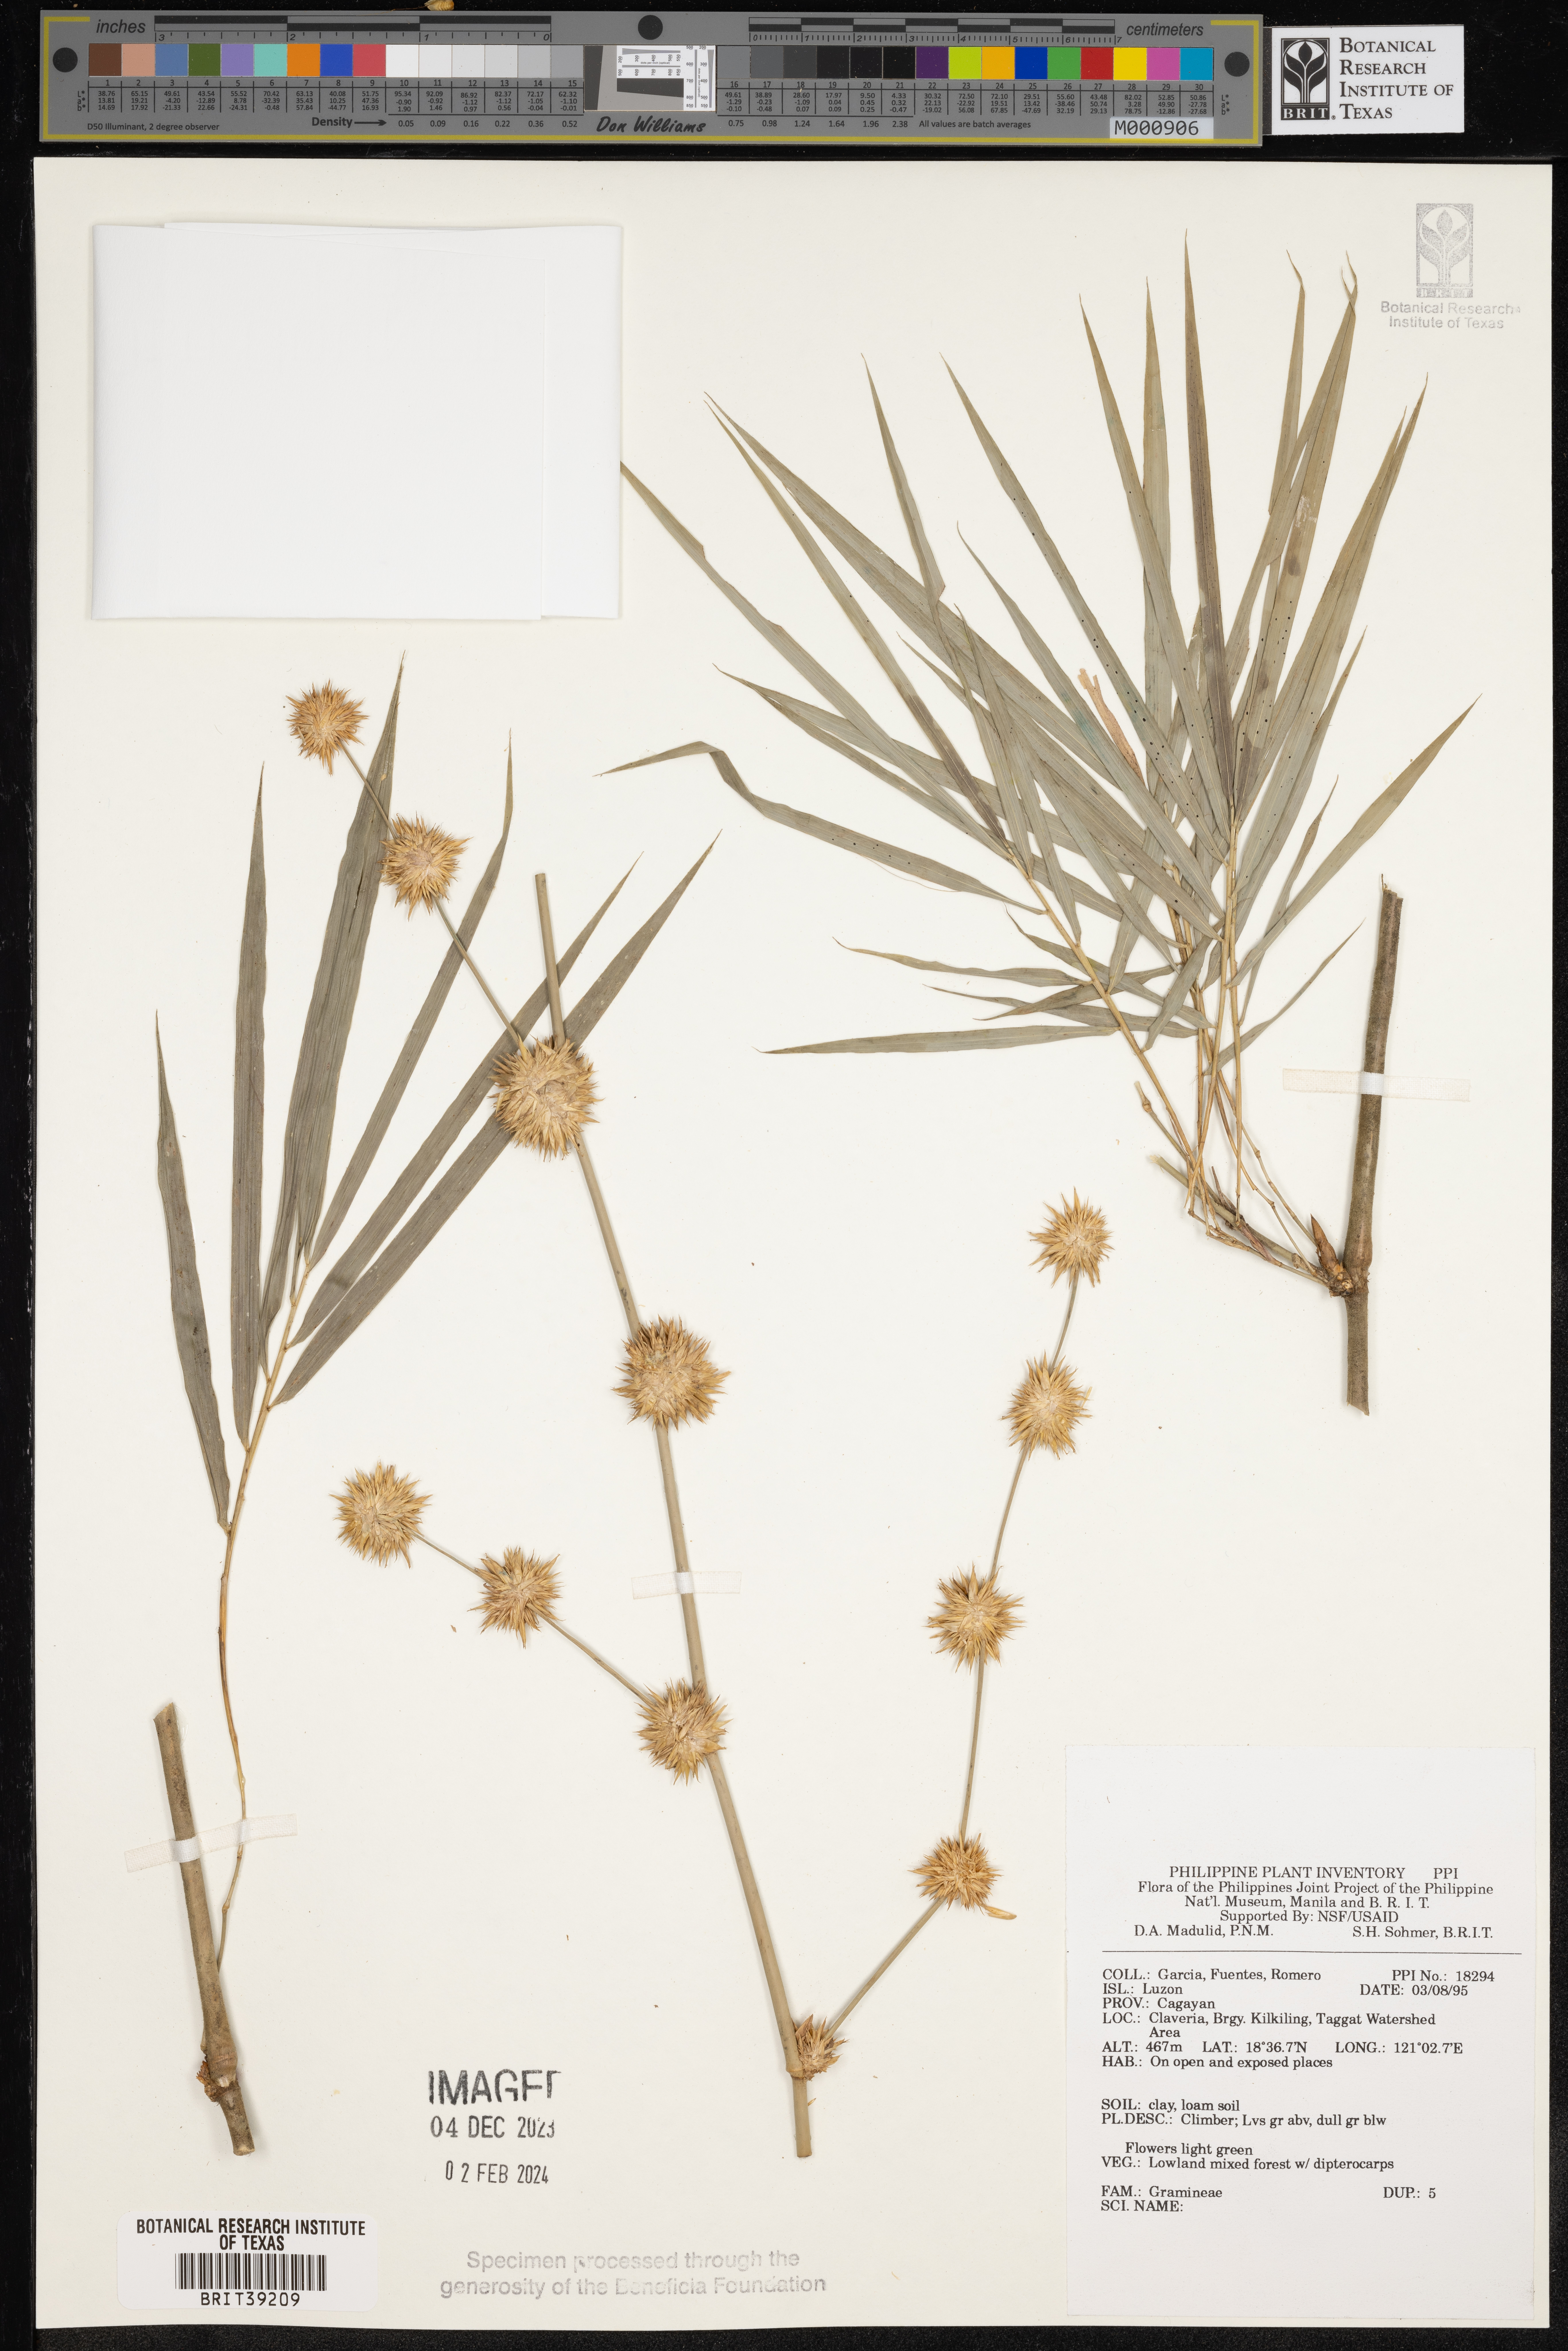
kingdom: Plantae
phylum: Tracheophyta
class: Liliopsida
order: Poales
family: Poaceae
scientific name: Poaceae
